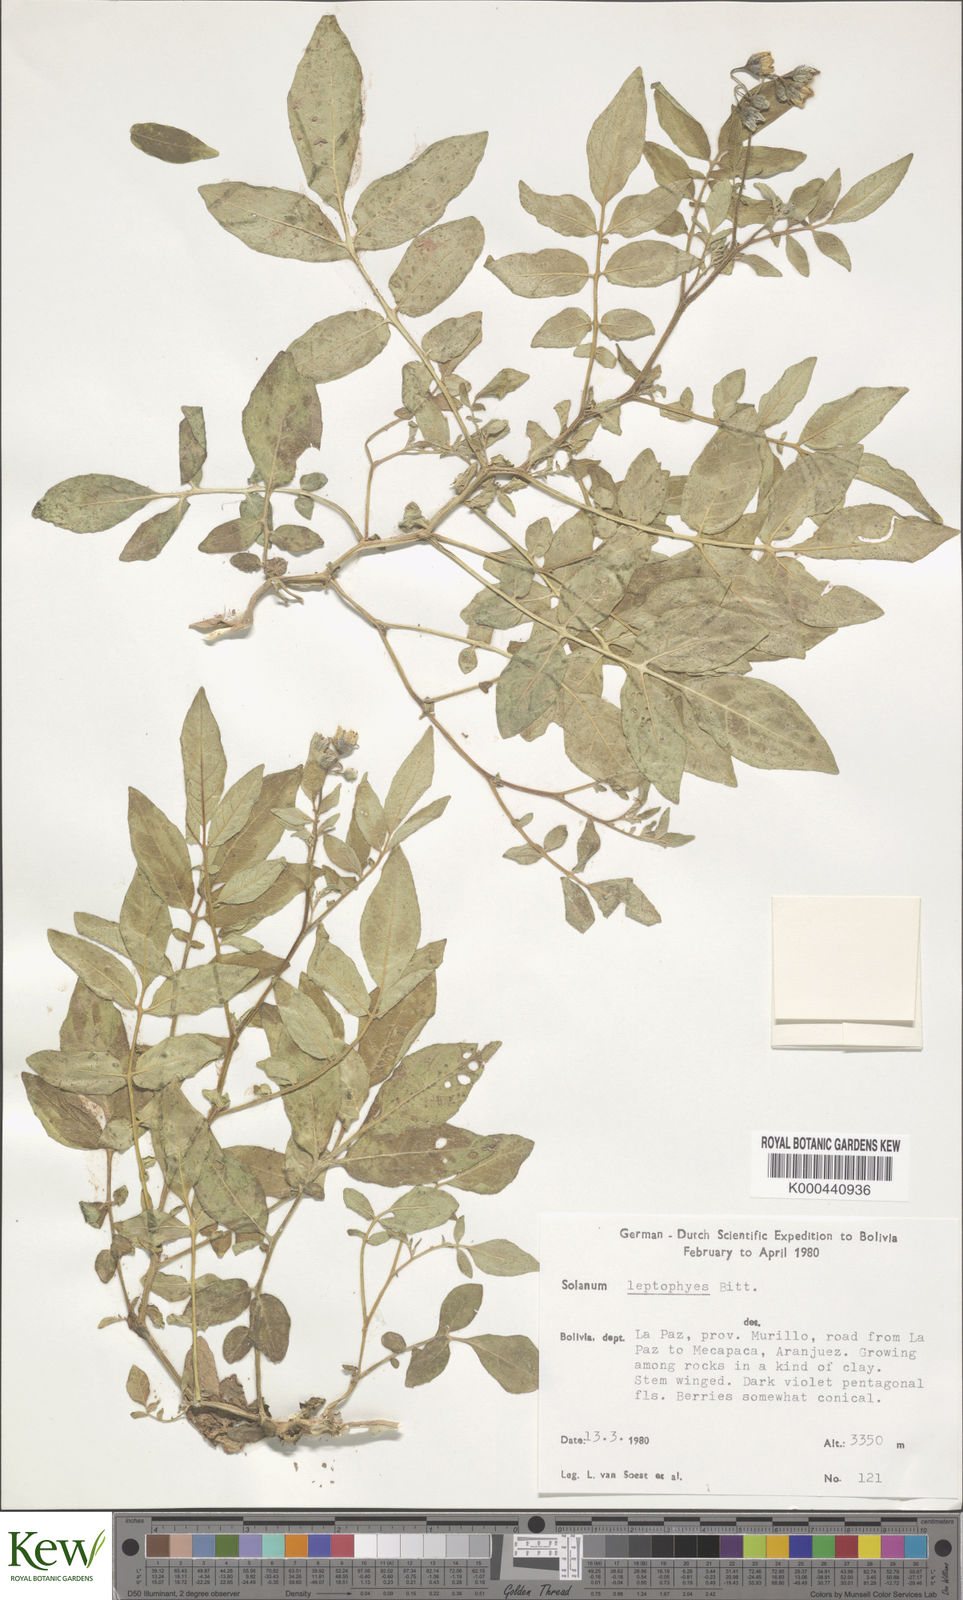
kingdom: Plantae
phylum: Tracheophyta
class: Magnoliopsida
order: Solanales
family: Solanaceae
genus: Solanum
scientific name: Solanum brevicaule
